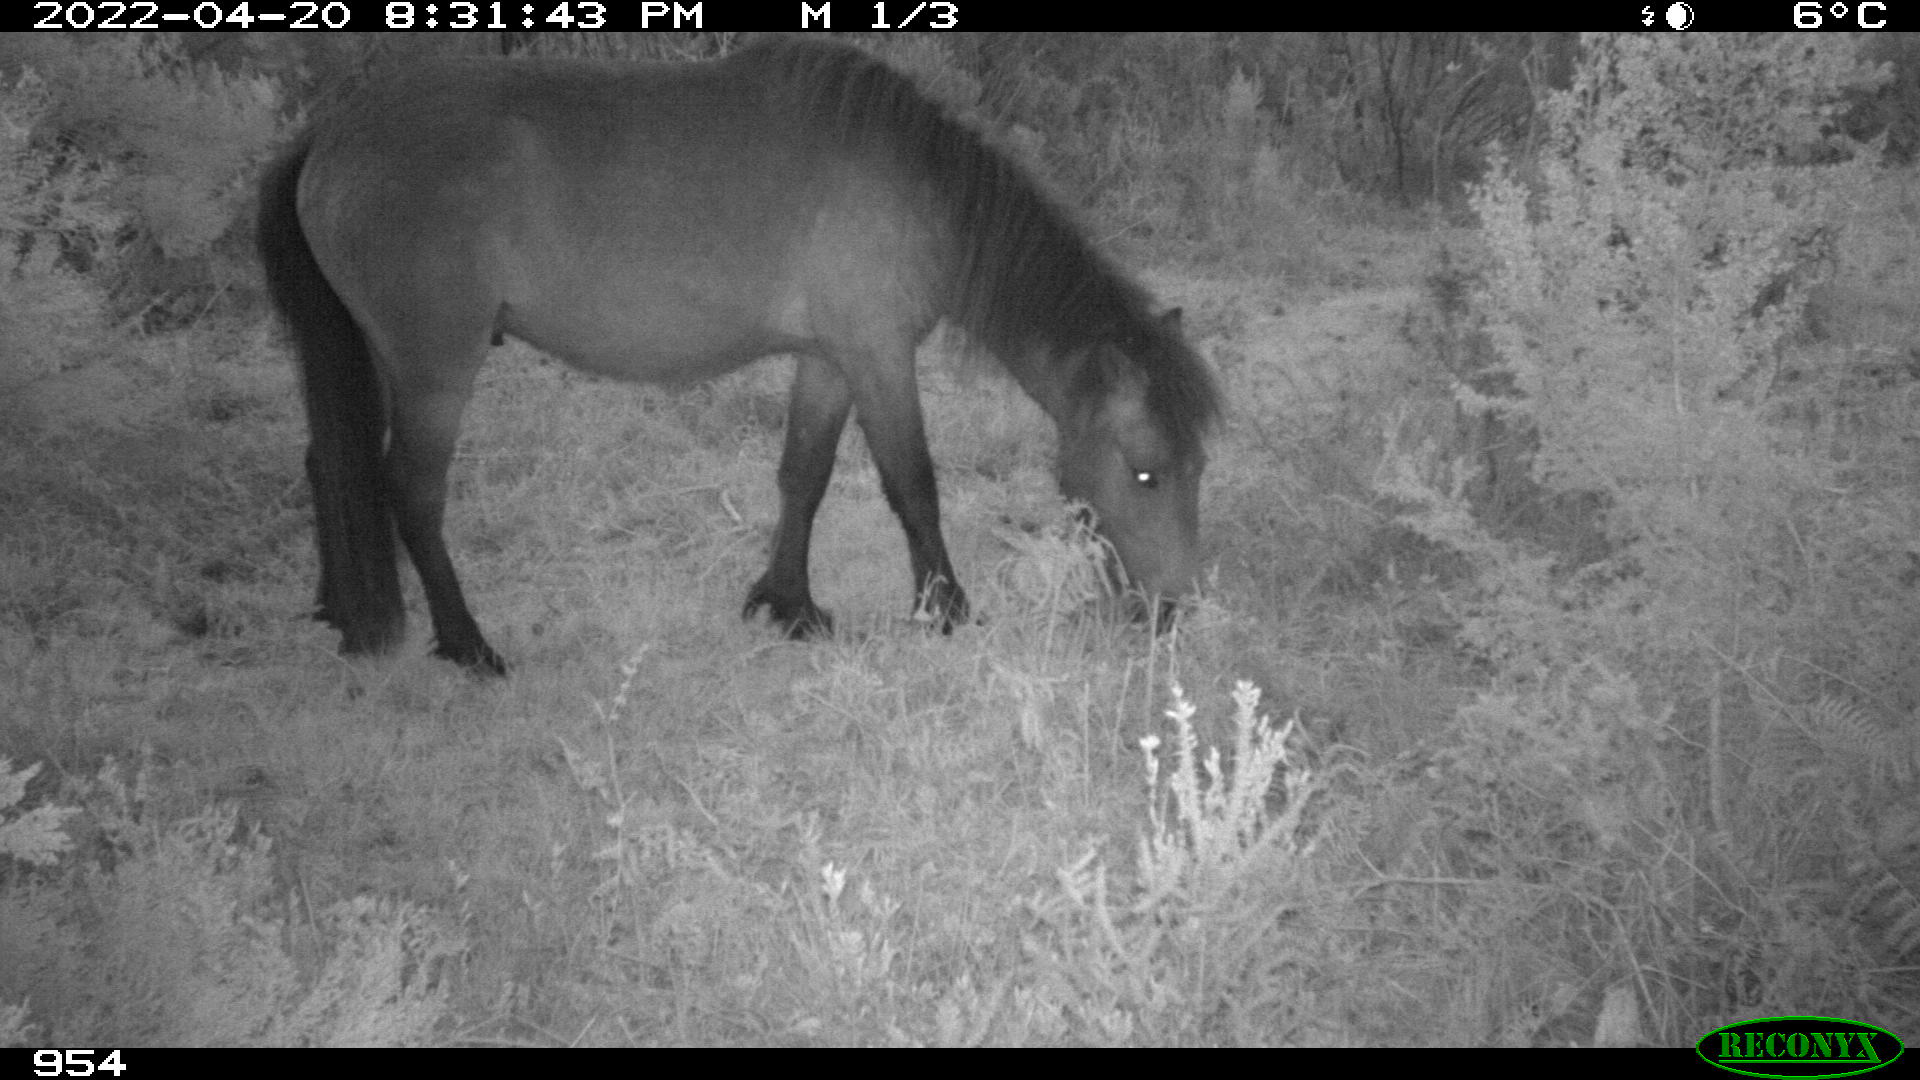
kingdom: Animalia
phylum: Chordata
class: Mammalia
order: Perissodactyla
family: Equidae
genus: Equus
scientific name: Equus caballus
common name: Horse
